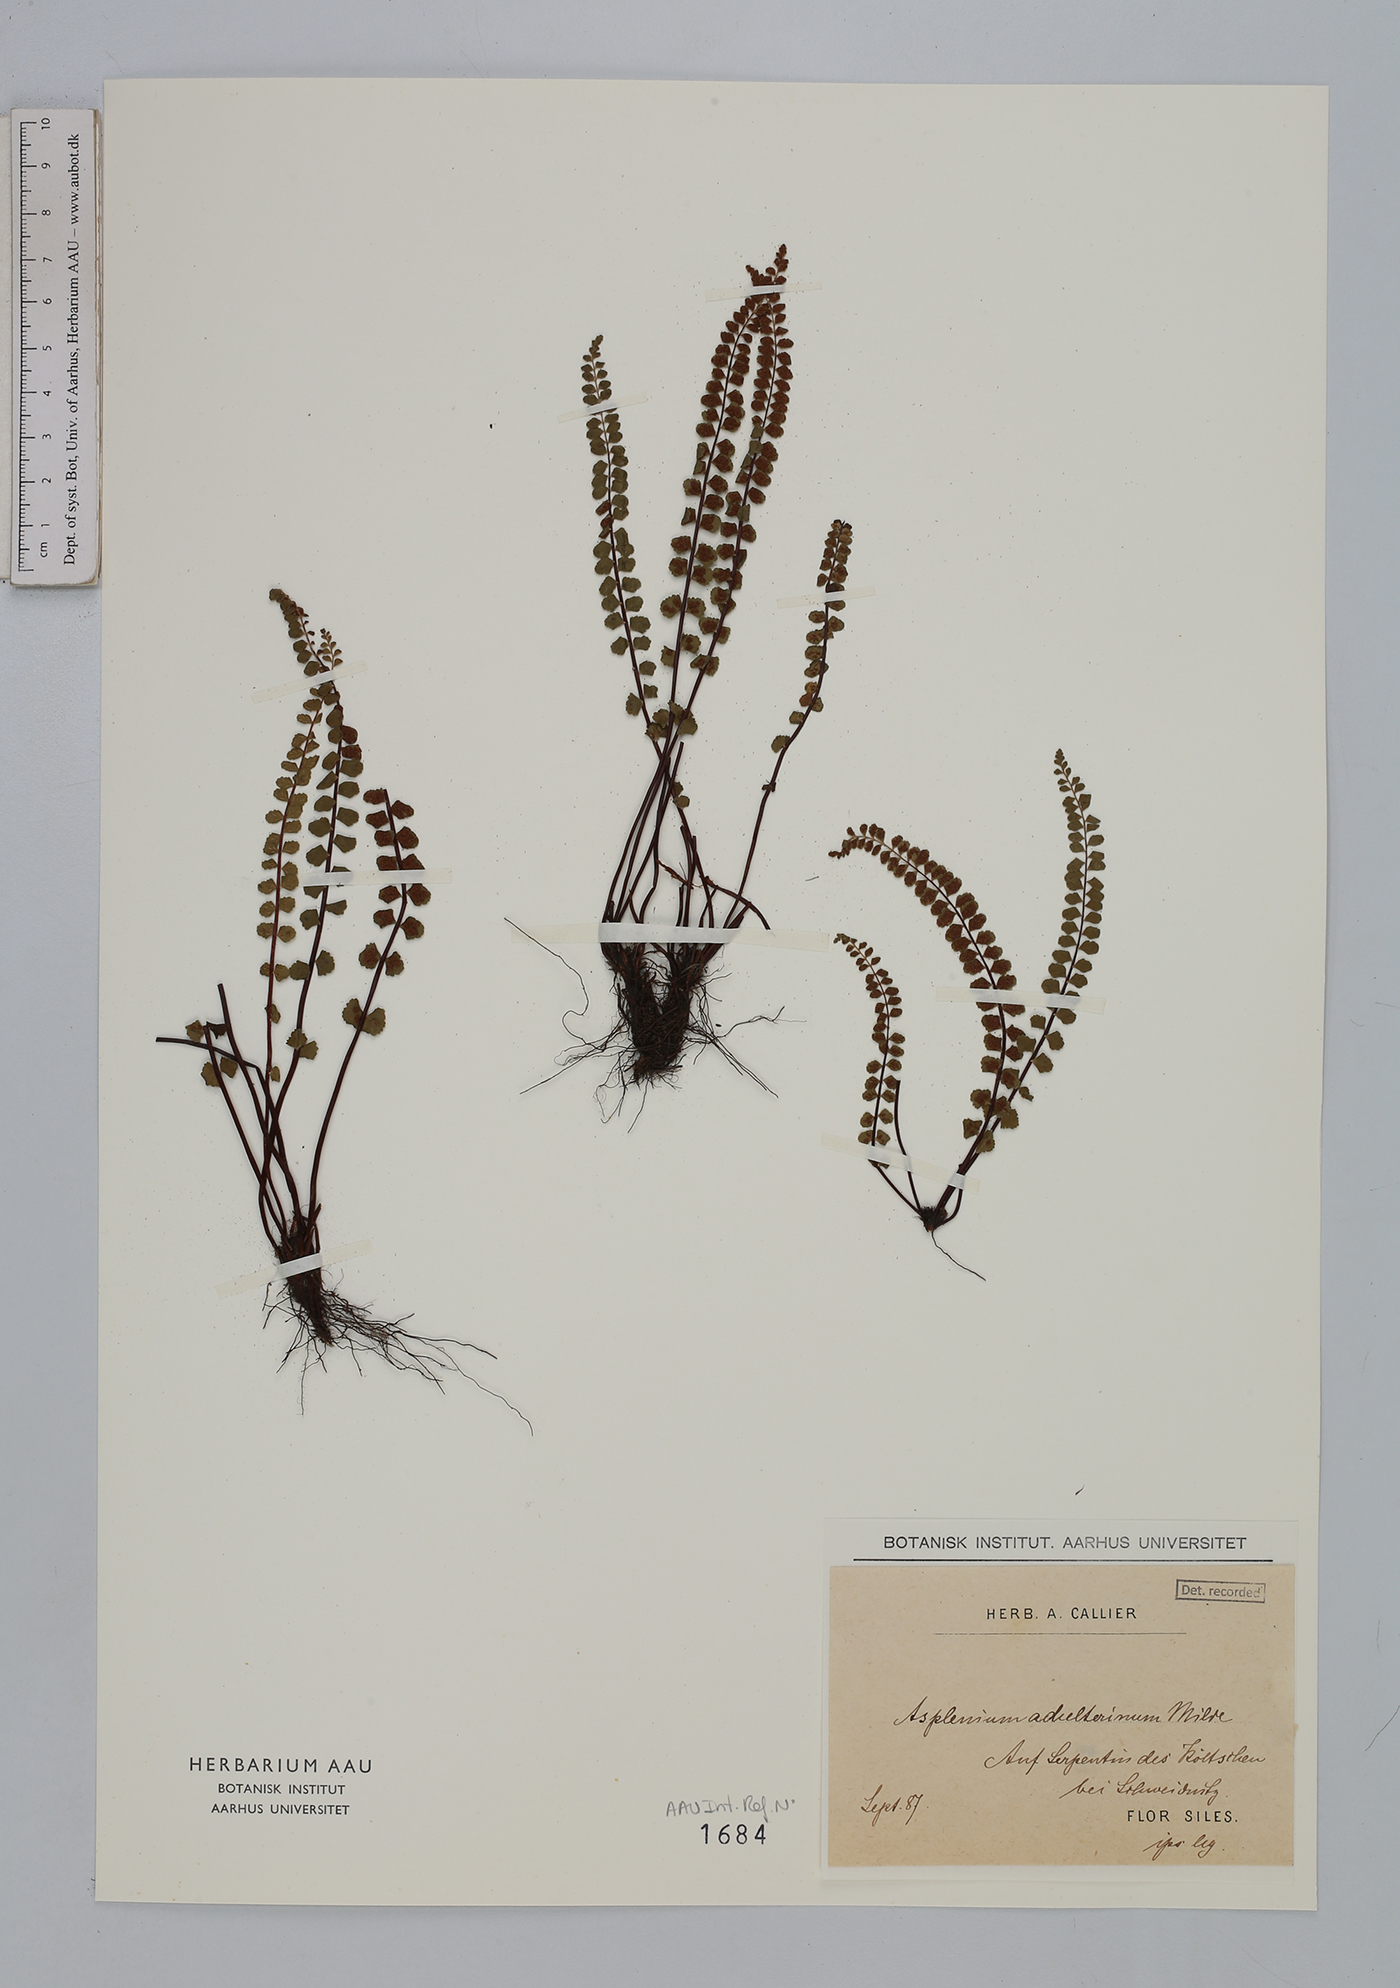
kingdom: Plantae
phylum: Tracheophyta
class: Polypodiopsida
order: Polypodiales
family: Aspleniaceae
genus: Asplenium
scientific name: Asplenium adulterinum
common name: Adulterated spleenwort
